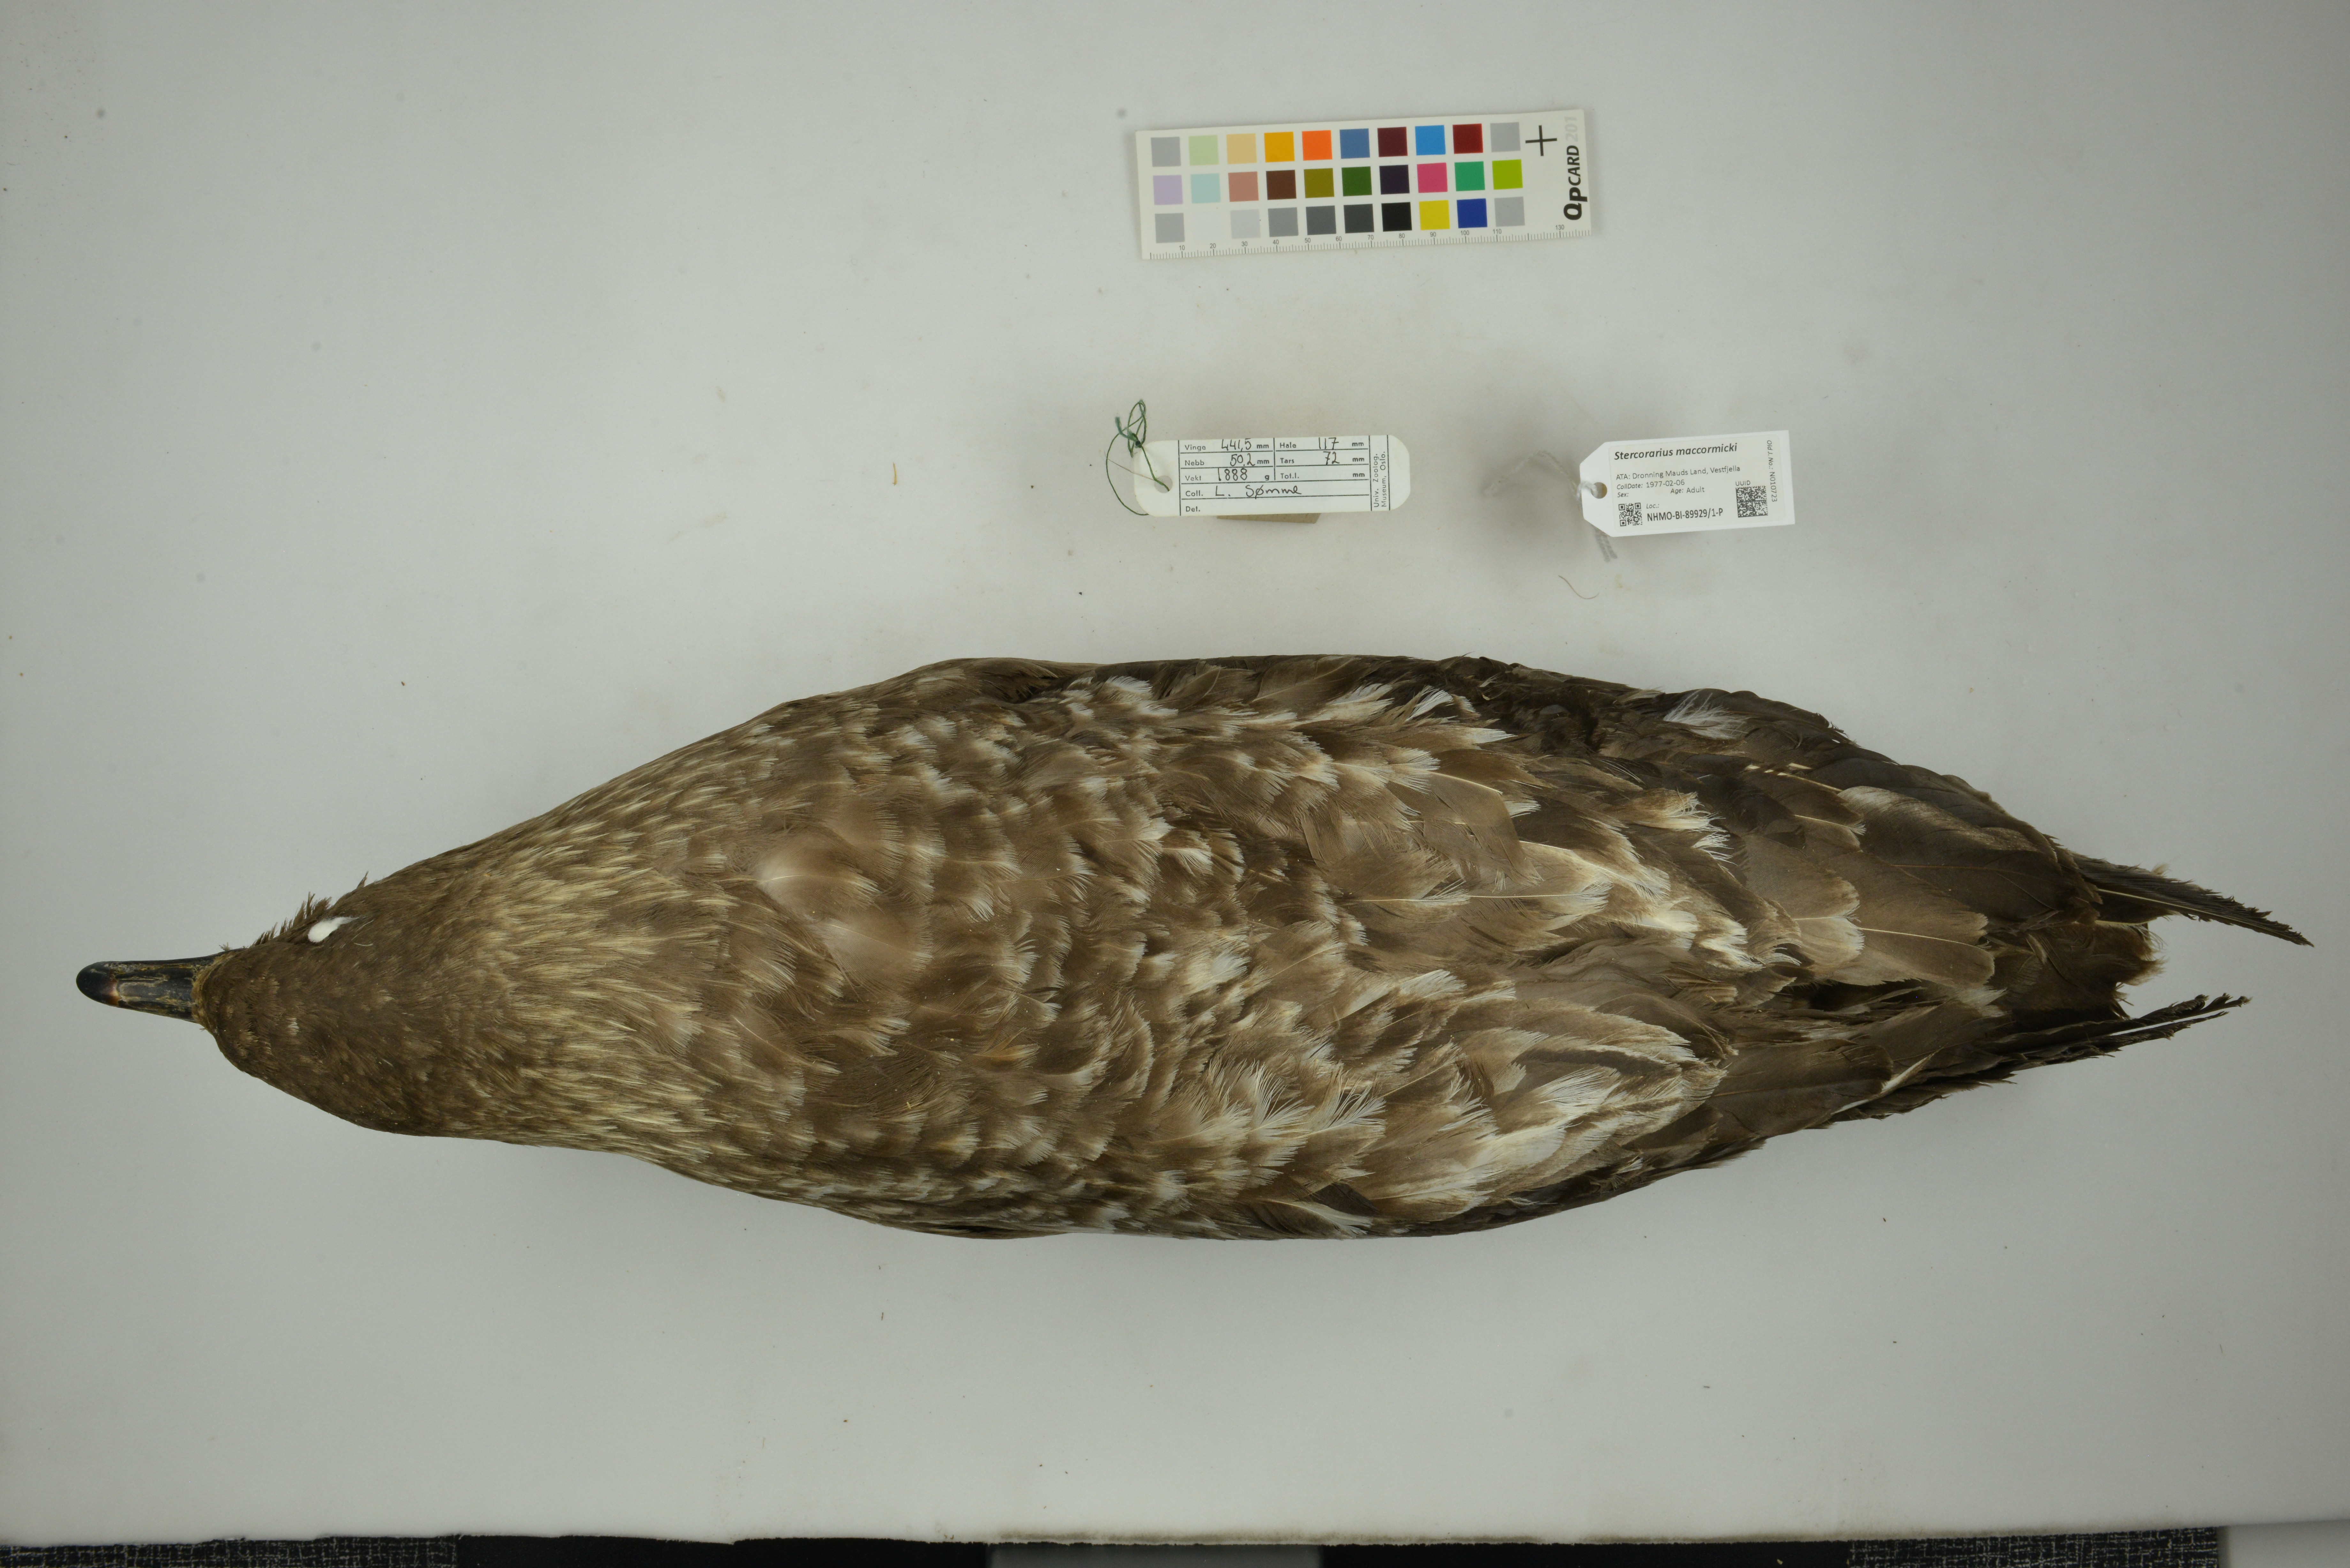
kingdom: Animalia
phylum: Chordata
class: Aves
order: Charadriiformes
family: Stercorariidae
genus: Stercorarius
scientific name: Stercorarius maccormicki
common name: South polar skua
